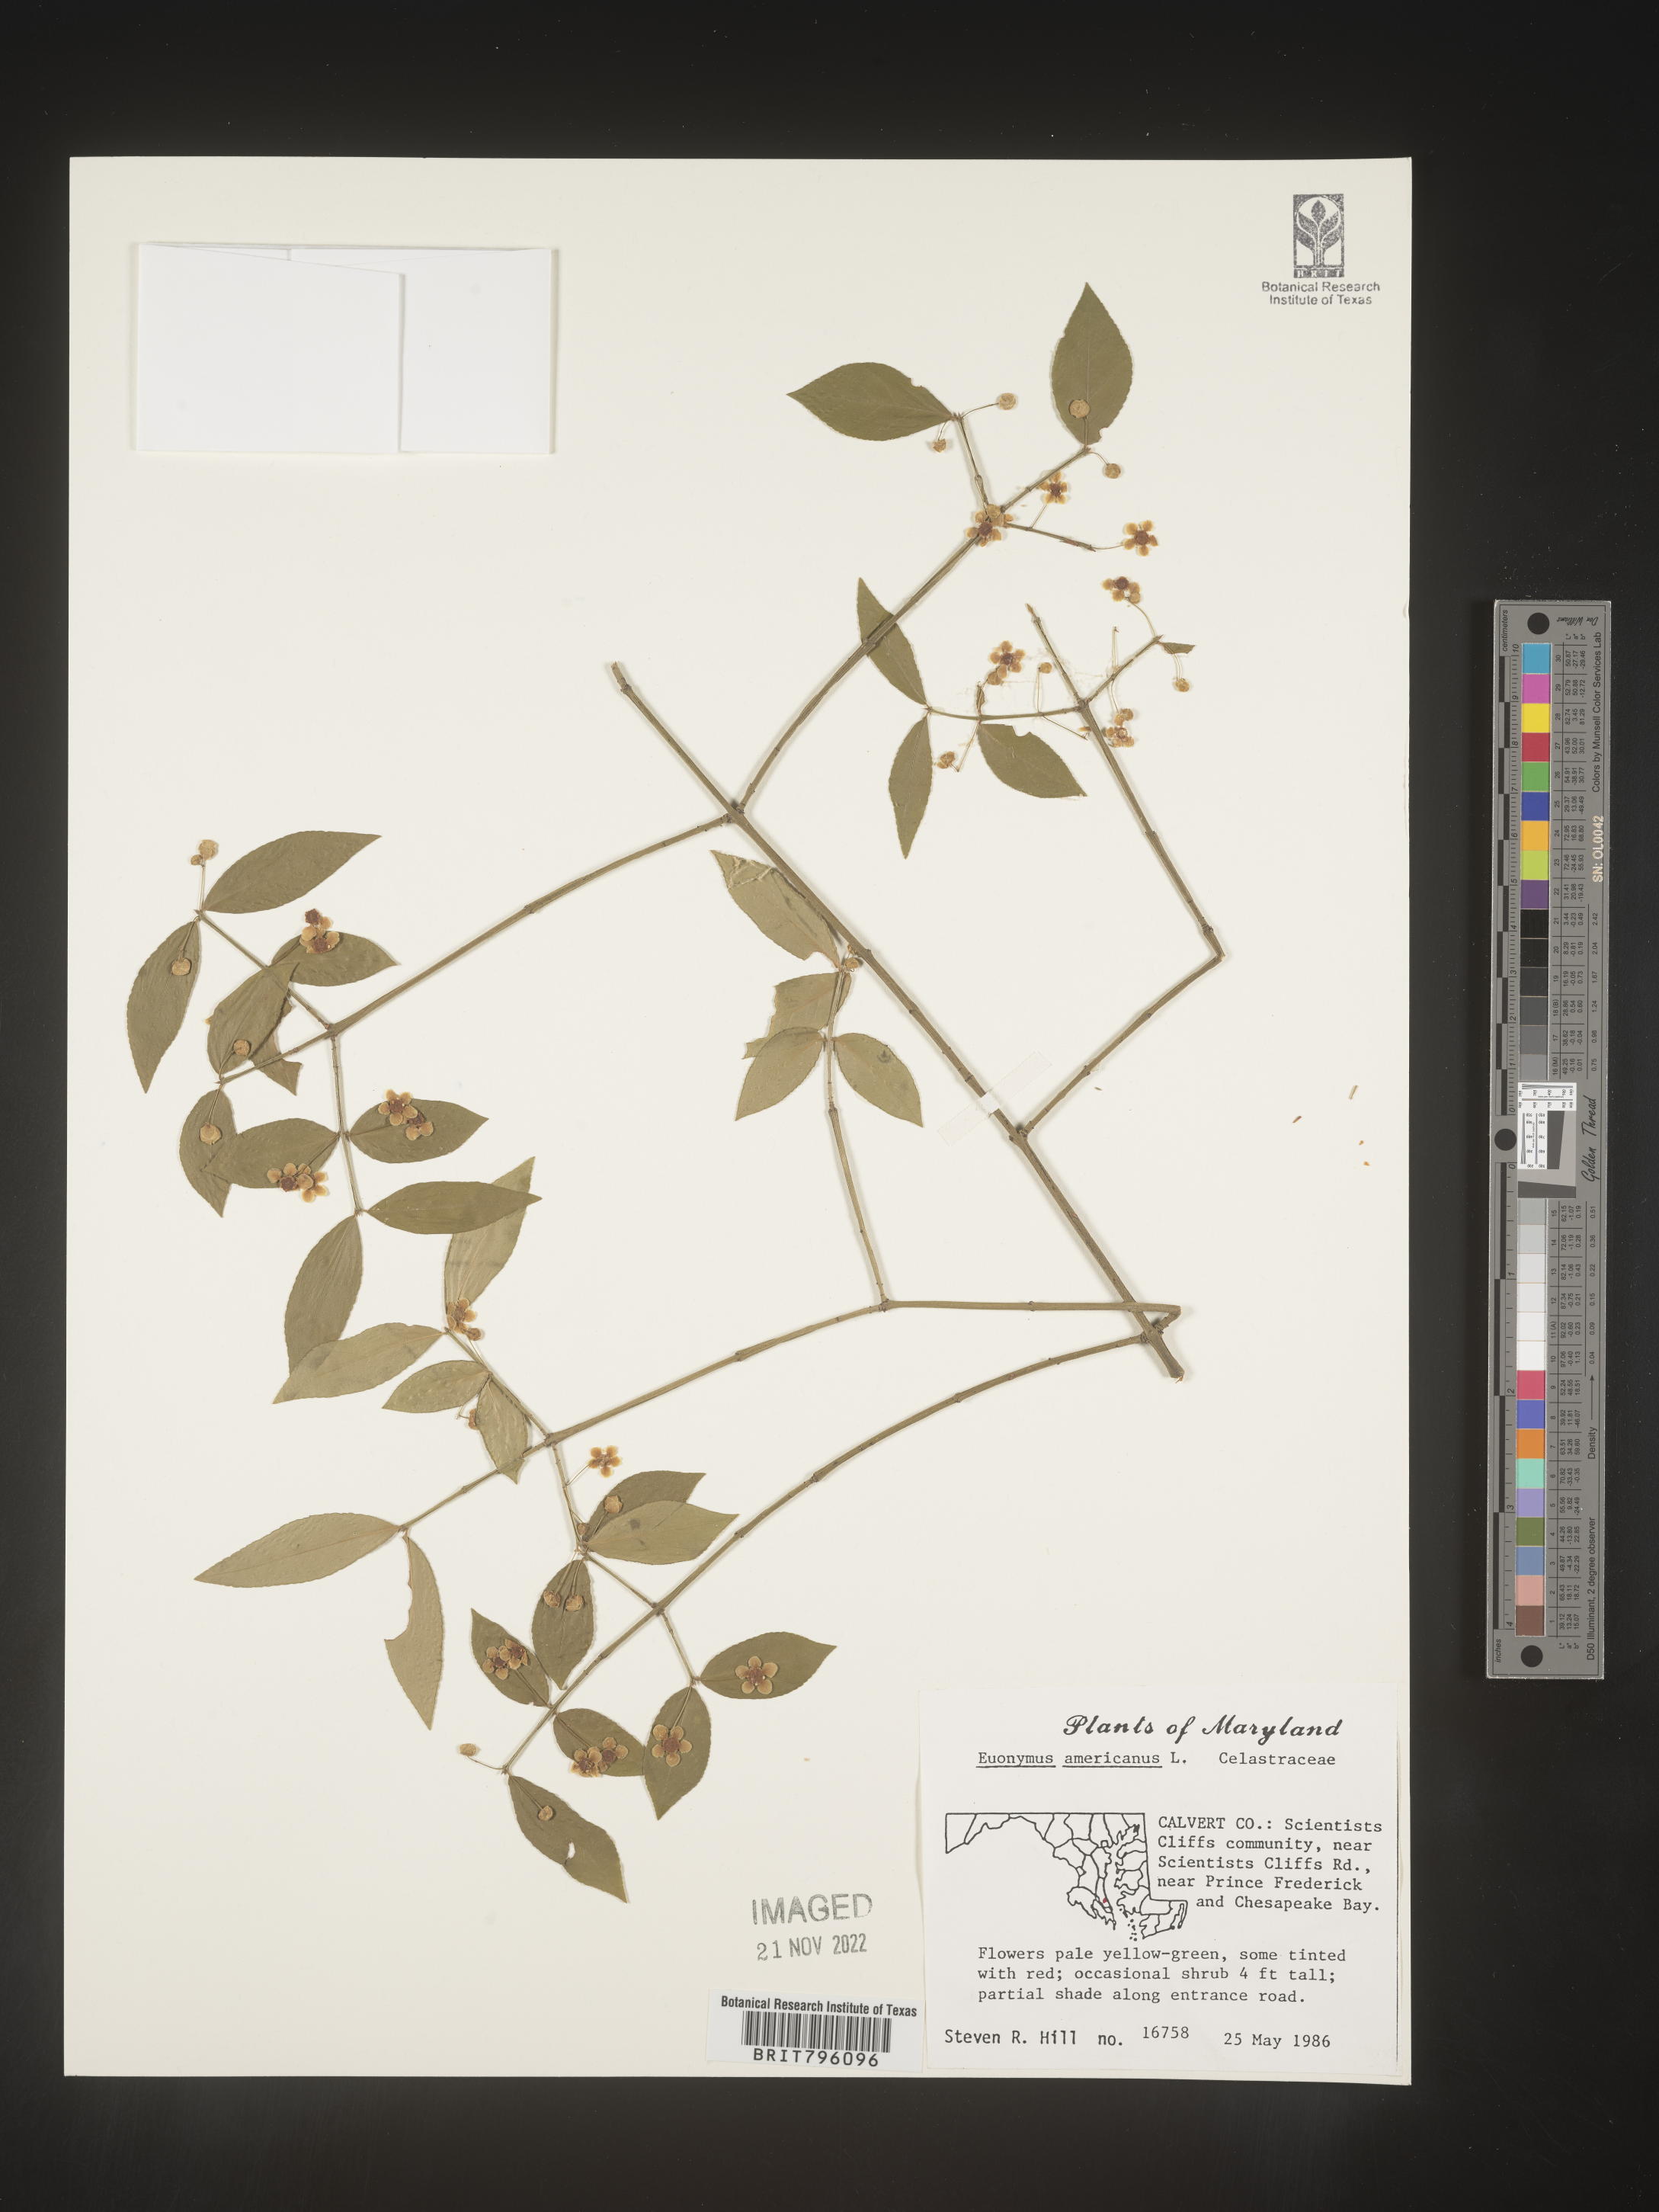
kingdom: Plantae
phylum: Tracheophyta
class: Magnoliopsida
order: Celastrales
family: Celastraceae
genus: Euonymus
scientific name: Euonymus americanus
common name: Bursting-heart
